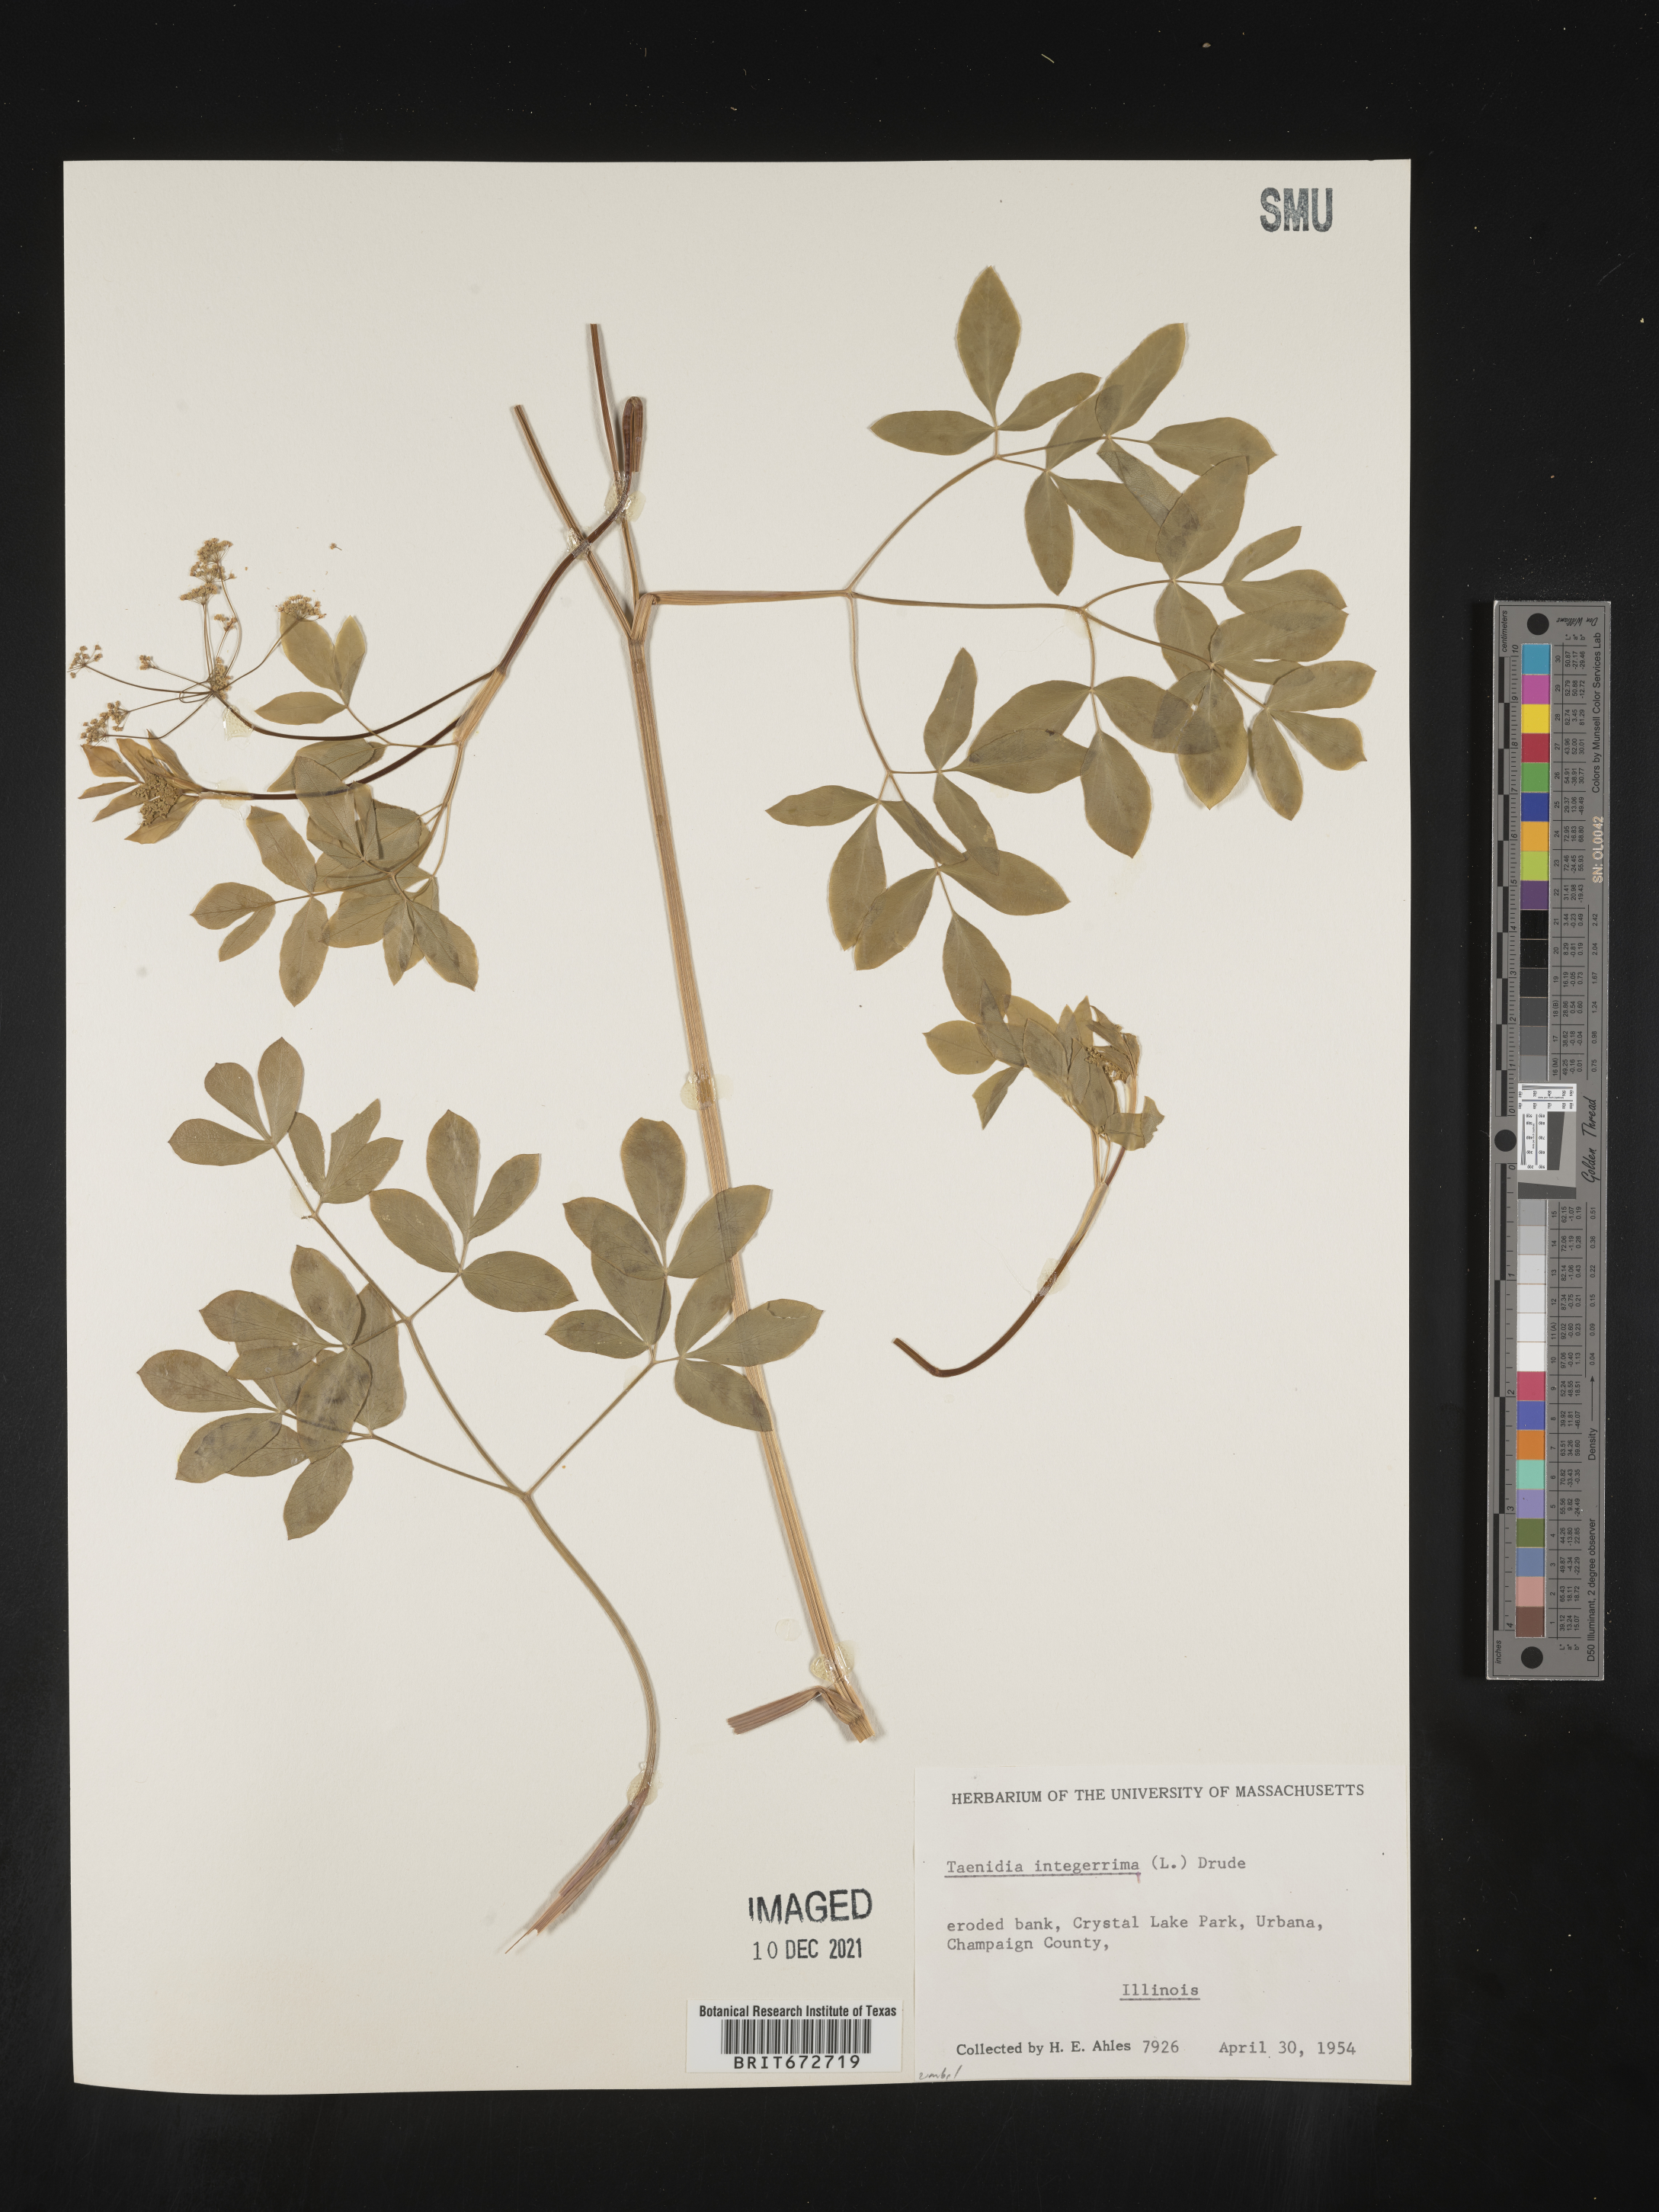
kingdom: Plantae
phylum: Tracheophyta
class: Magnoliopsida
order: Apiales
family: Apiaceae
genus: Taenidia
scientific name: Taenidia
